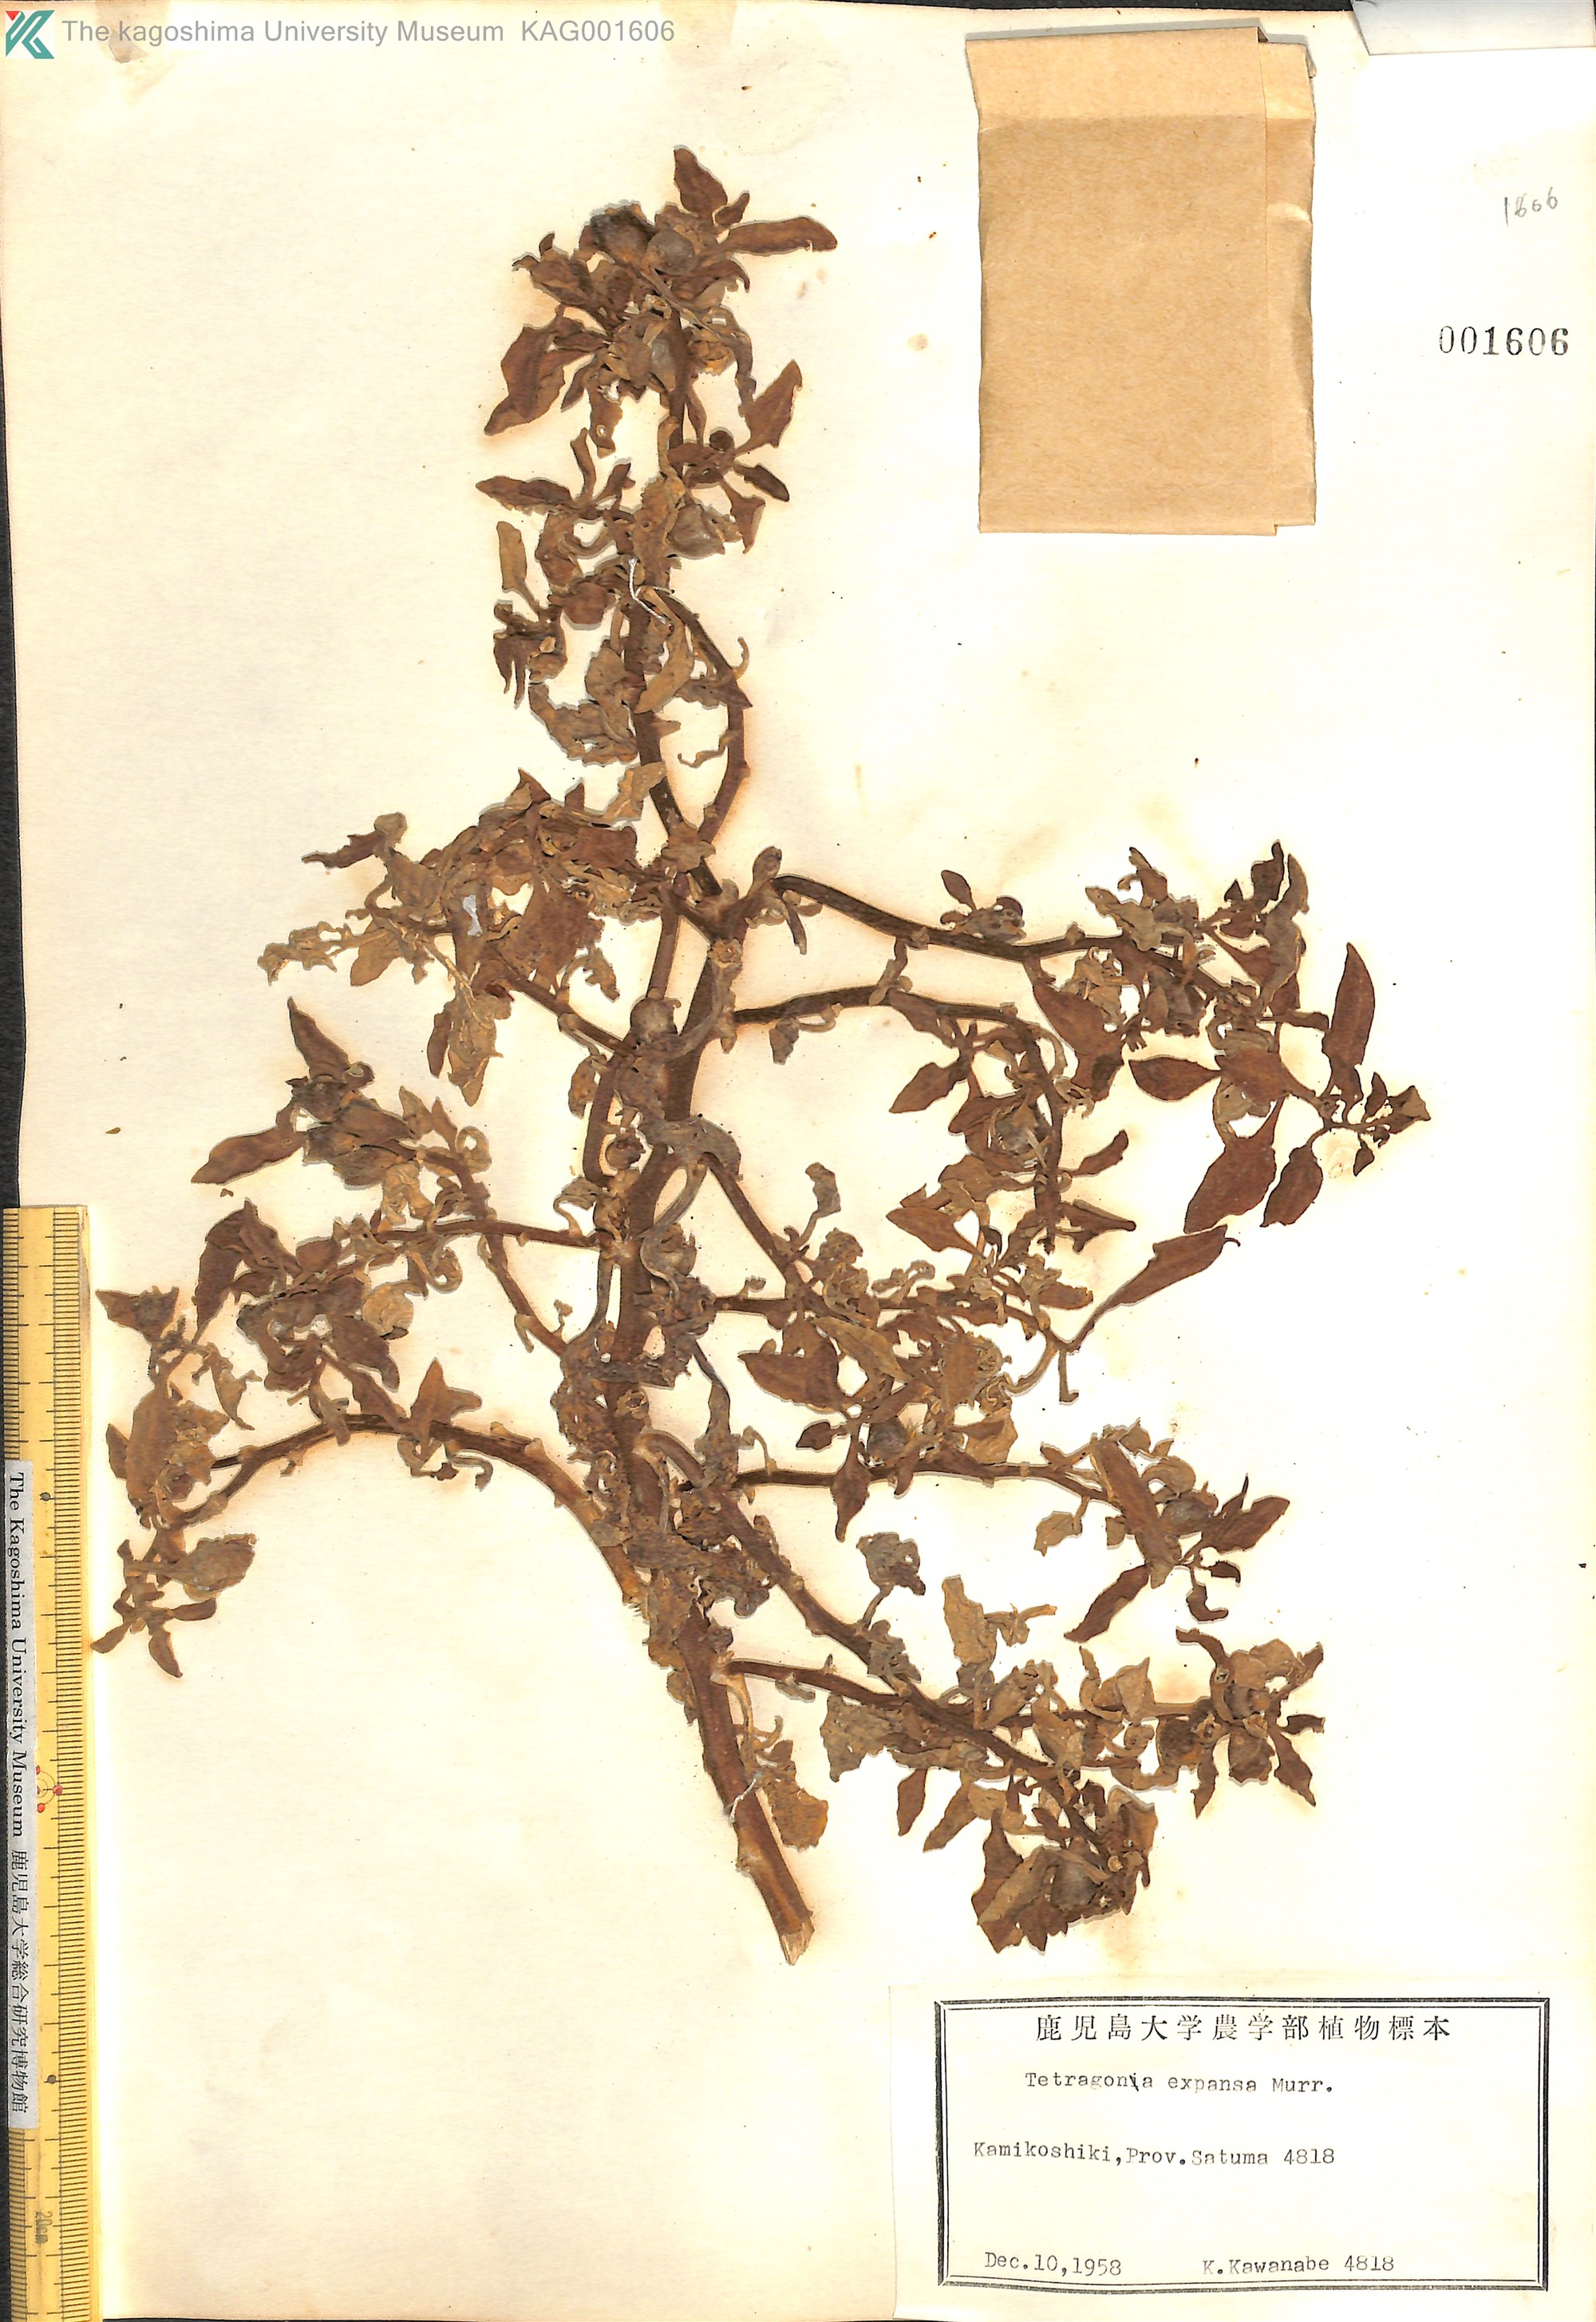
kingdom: Plantae
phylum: Tracheophyta
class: Magnoliopsida
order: Caryophyllales
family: Aizoaceae
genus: Tetragonia
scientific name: Tetragonia tetragonoides
